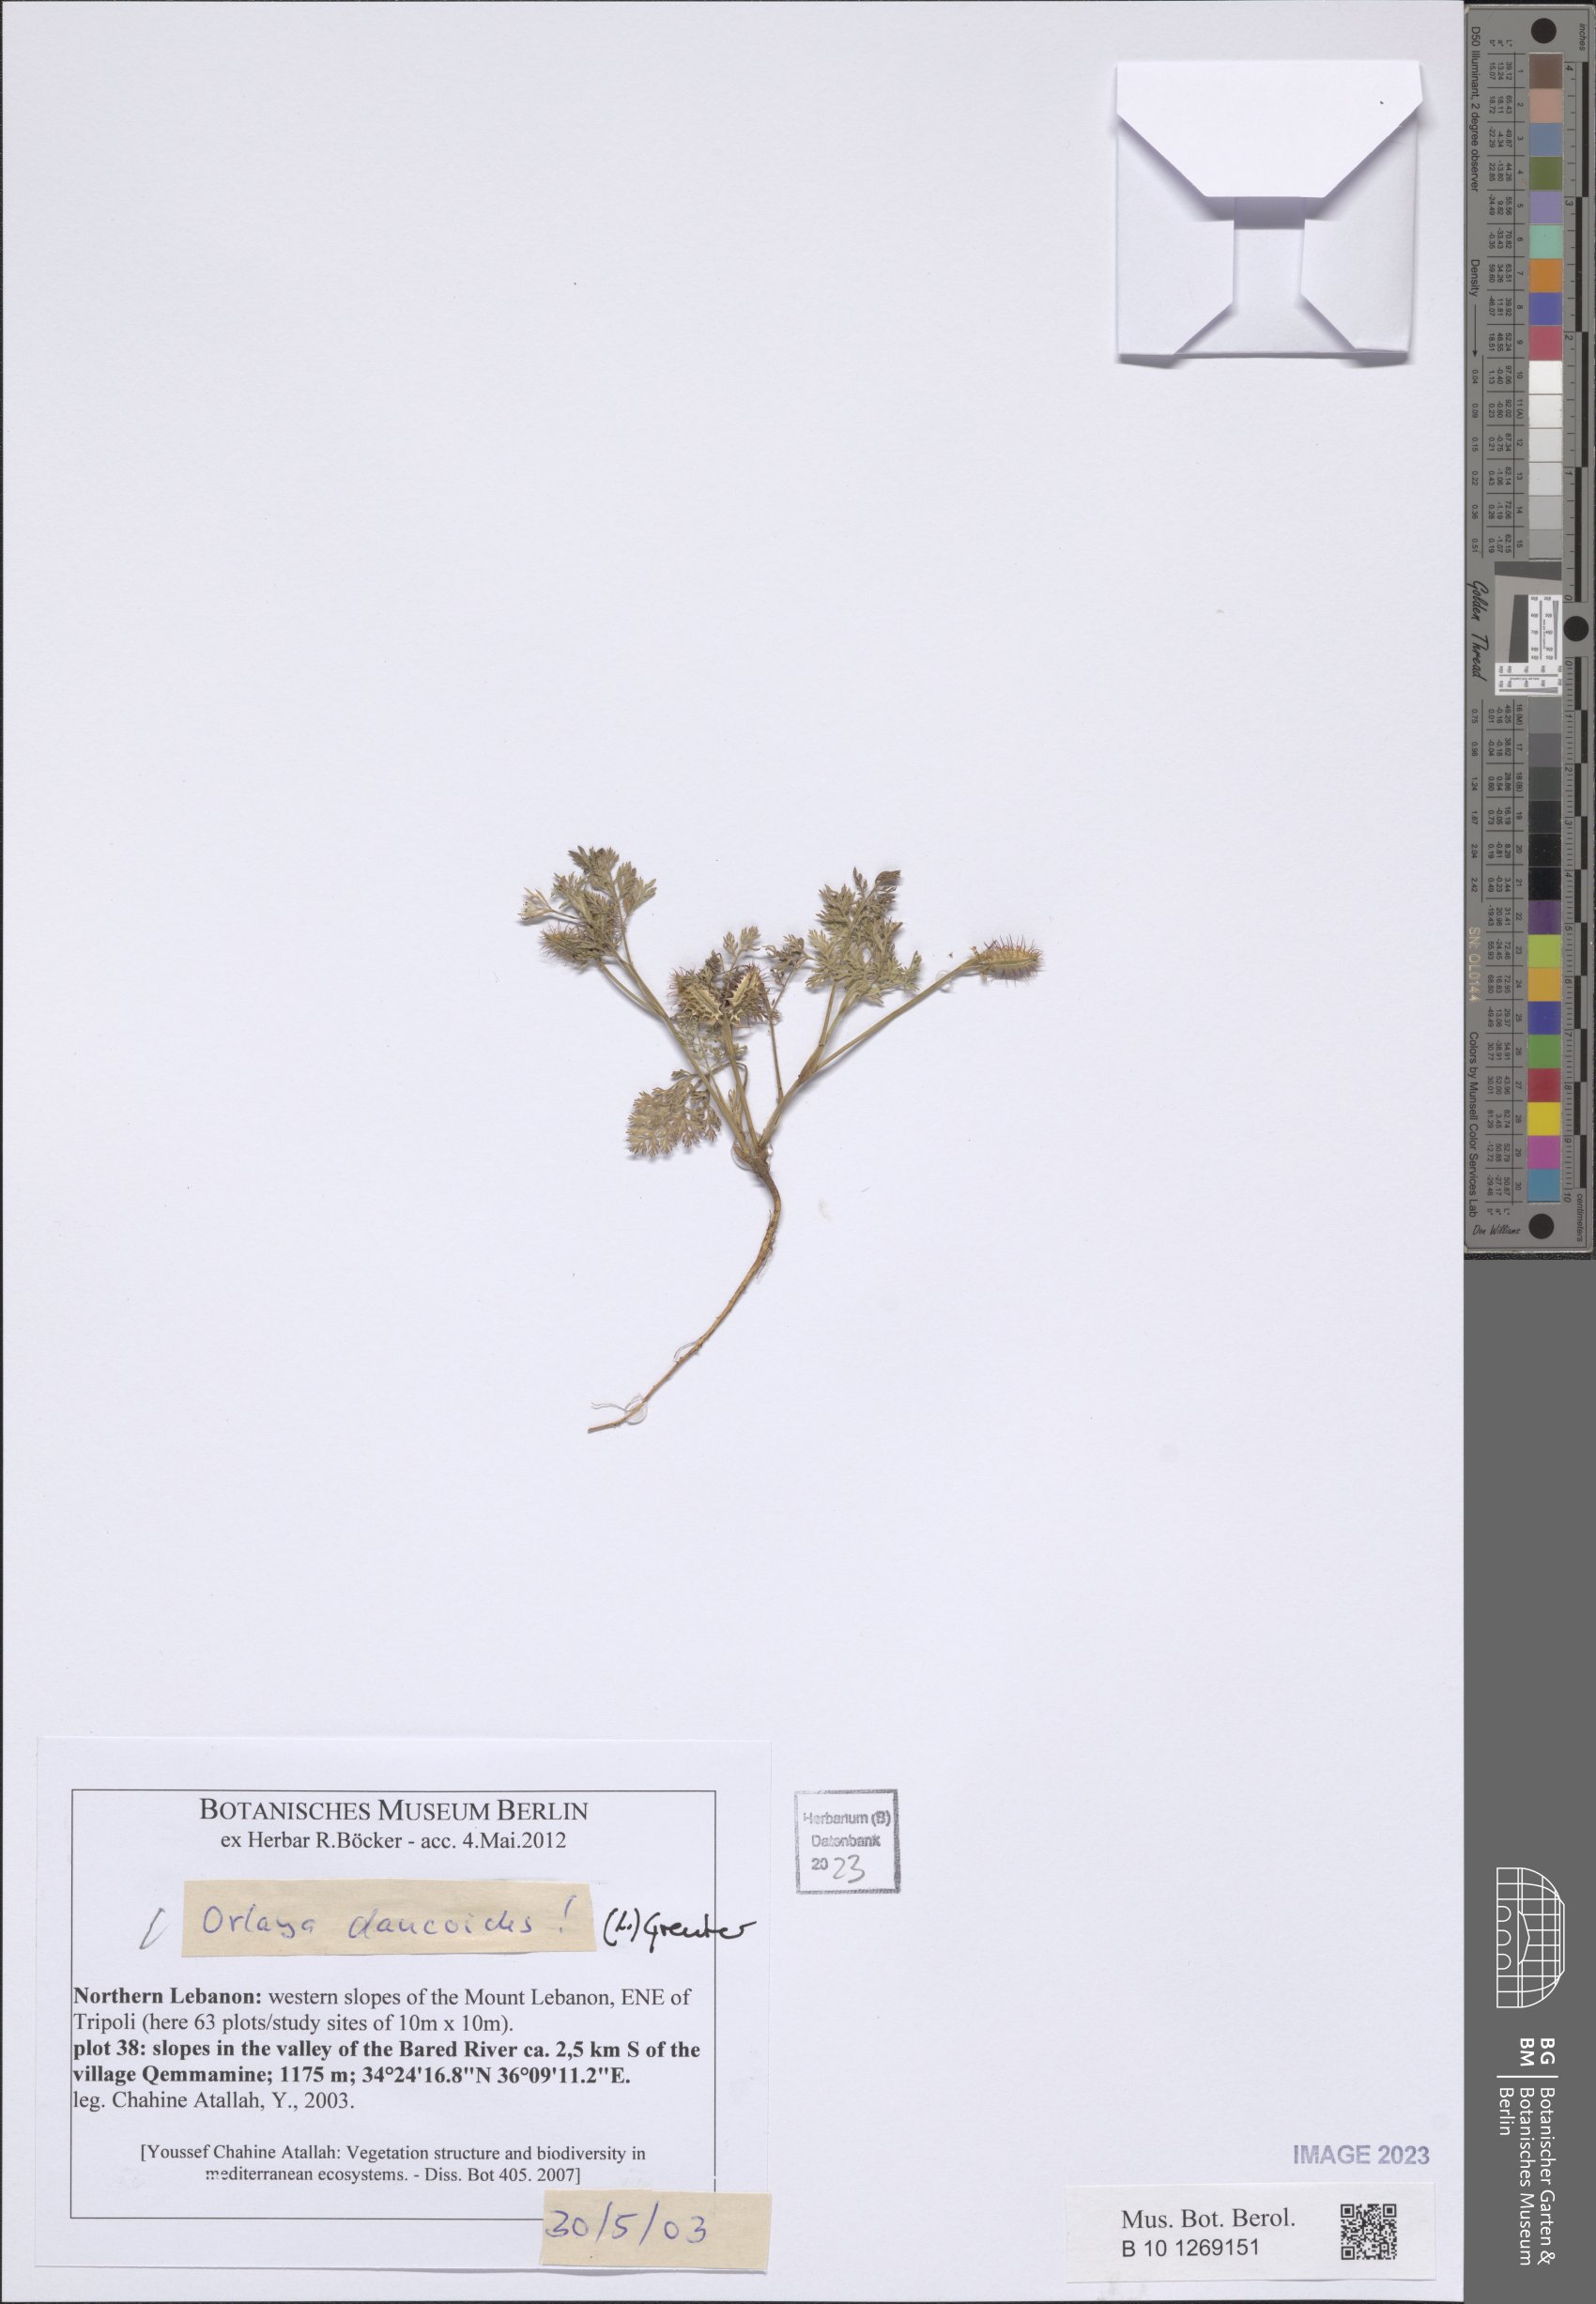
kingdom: Plantae
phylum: Tracheophyta
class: Magnoliopsida
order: Apiales
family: Apiaceae
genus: Orlaya
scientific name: Orlaya daucoides
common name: Flat-fruit orlaya
